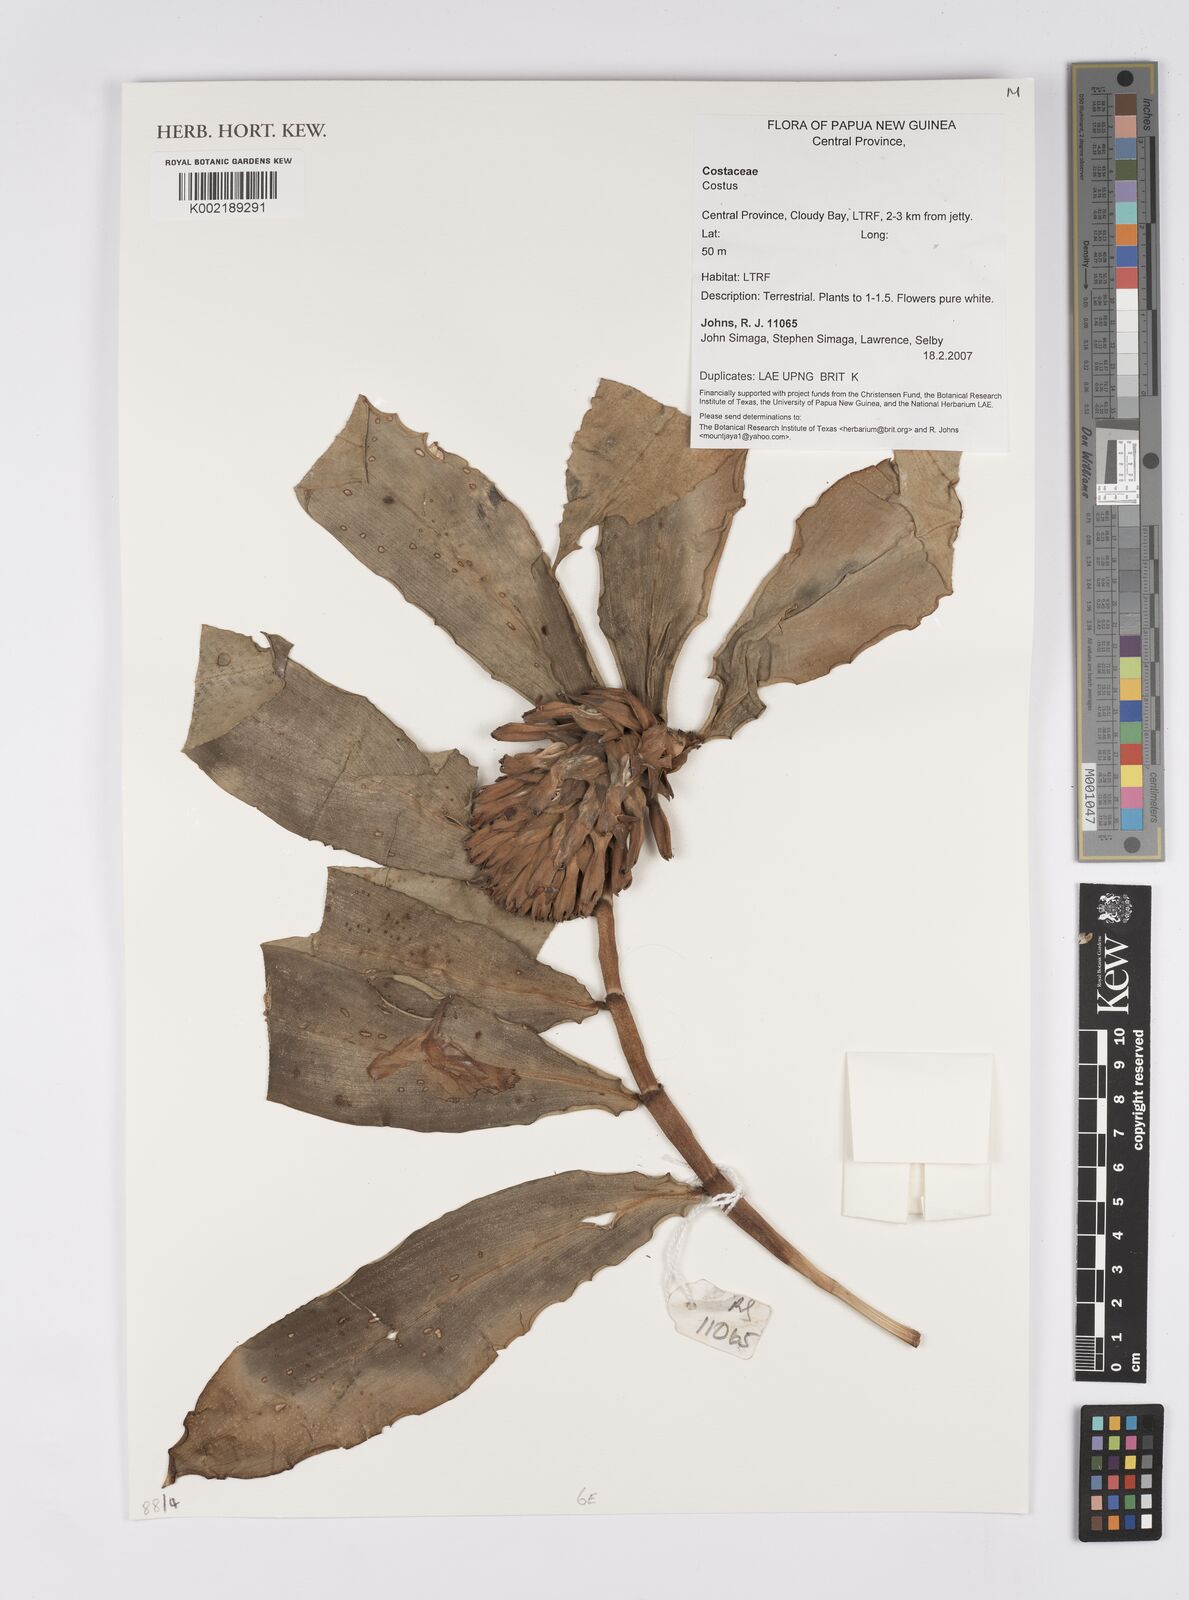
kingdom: Plantae
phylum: Tracheophyta
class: Liliopsida
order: Zingiberales
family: Costaceae
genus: Costus
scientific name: Costus
